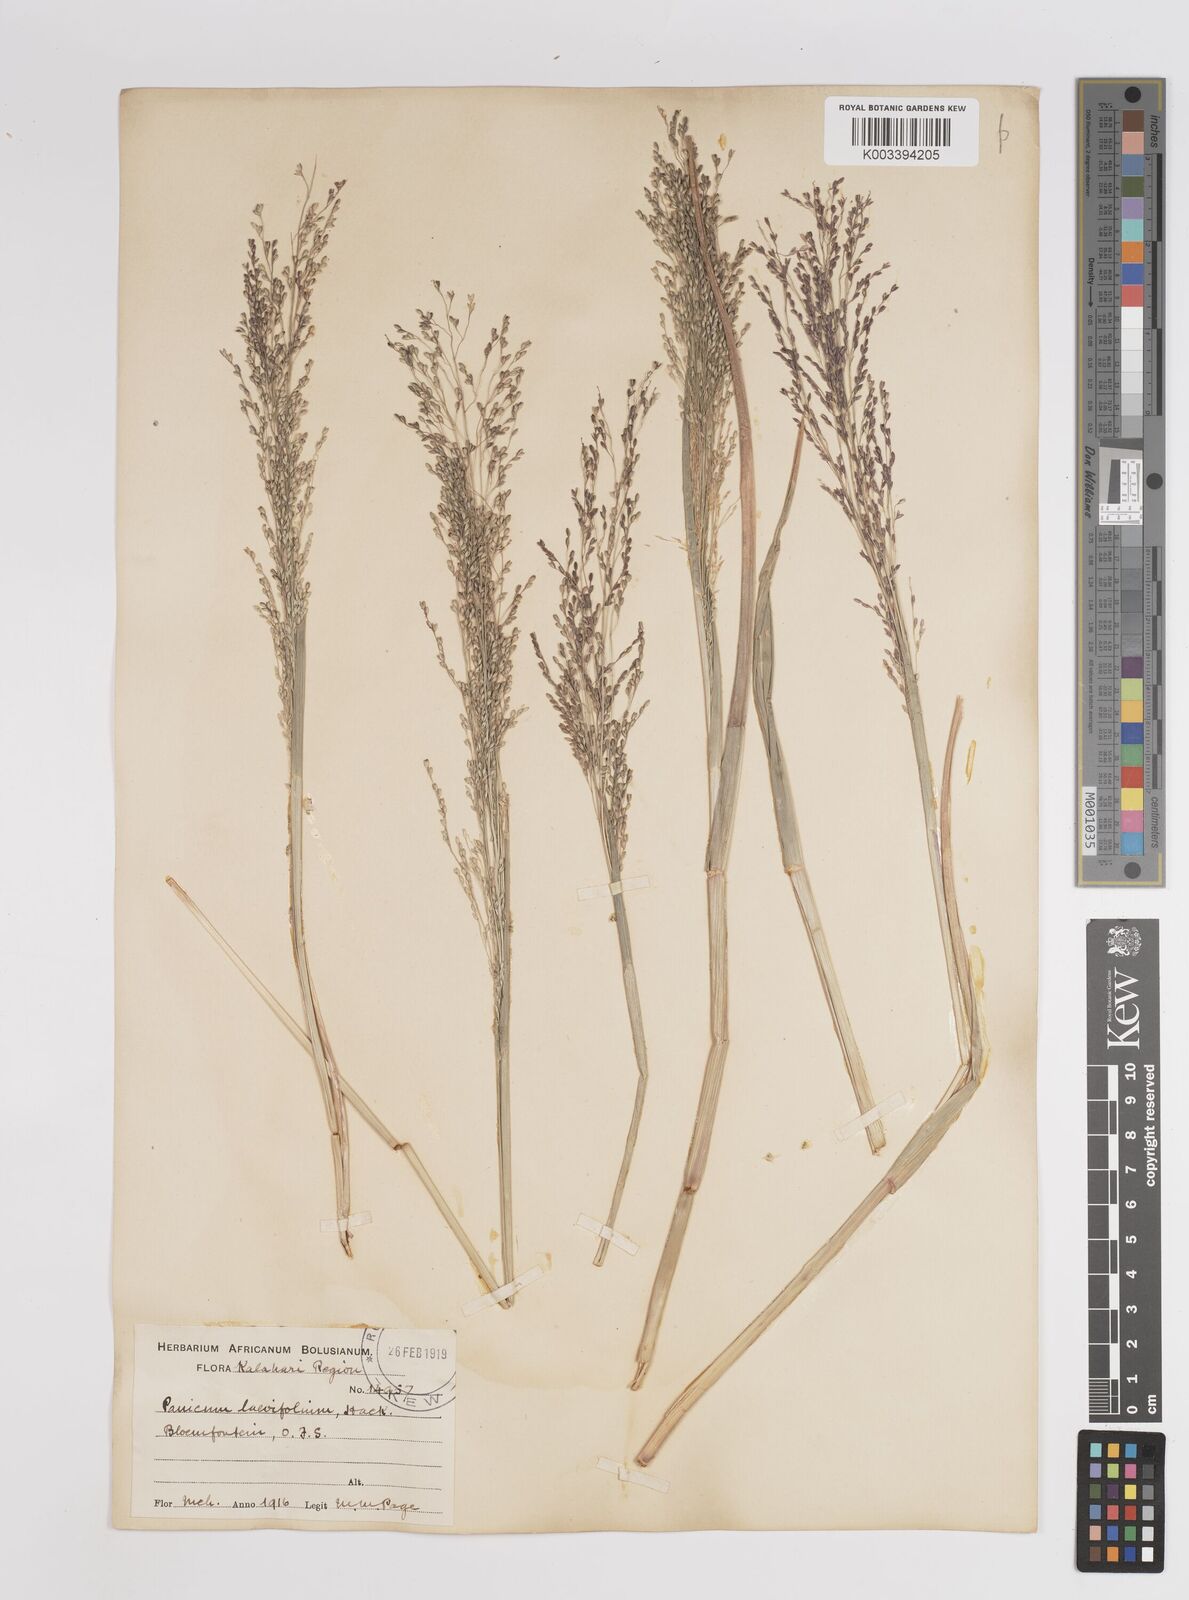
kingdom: Plantae
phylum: Tracheophyta
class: Liliopsida
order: Poales
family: Poaceae
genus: Panicum
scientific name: Panicum schinzii
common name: Sweet grass
